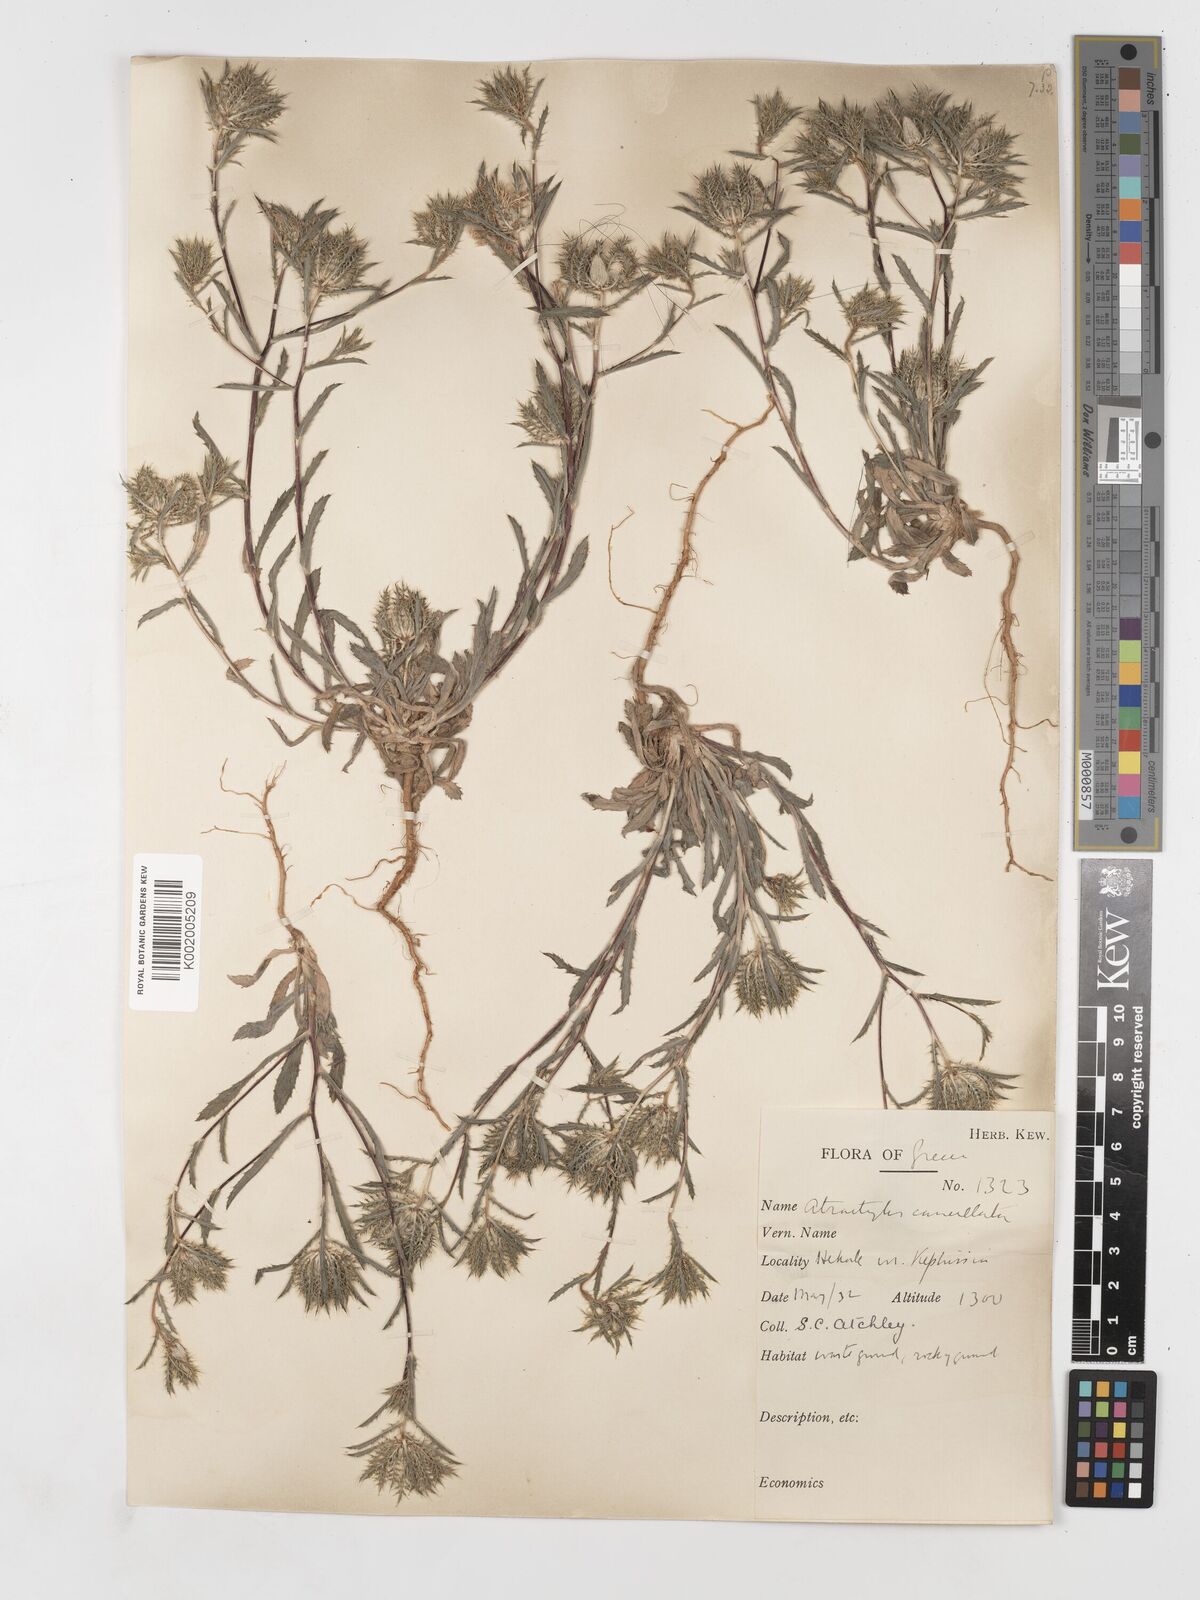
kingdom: Plantae
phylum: Tracheophyta
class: Magnoliopsida
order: Asterales
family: Asteraceae
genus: Atractylis
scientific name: Atractylis cancellata
